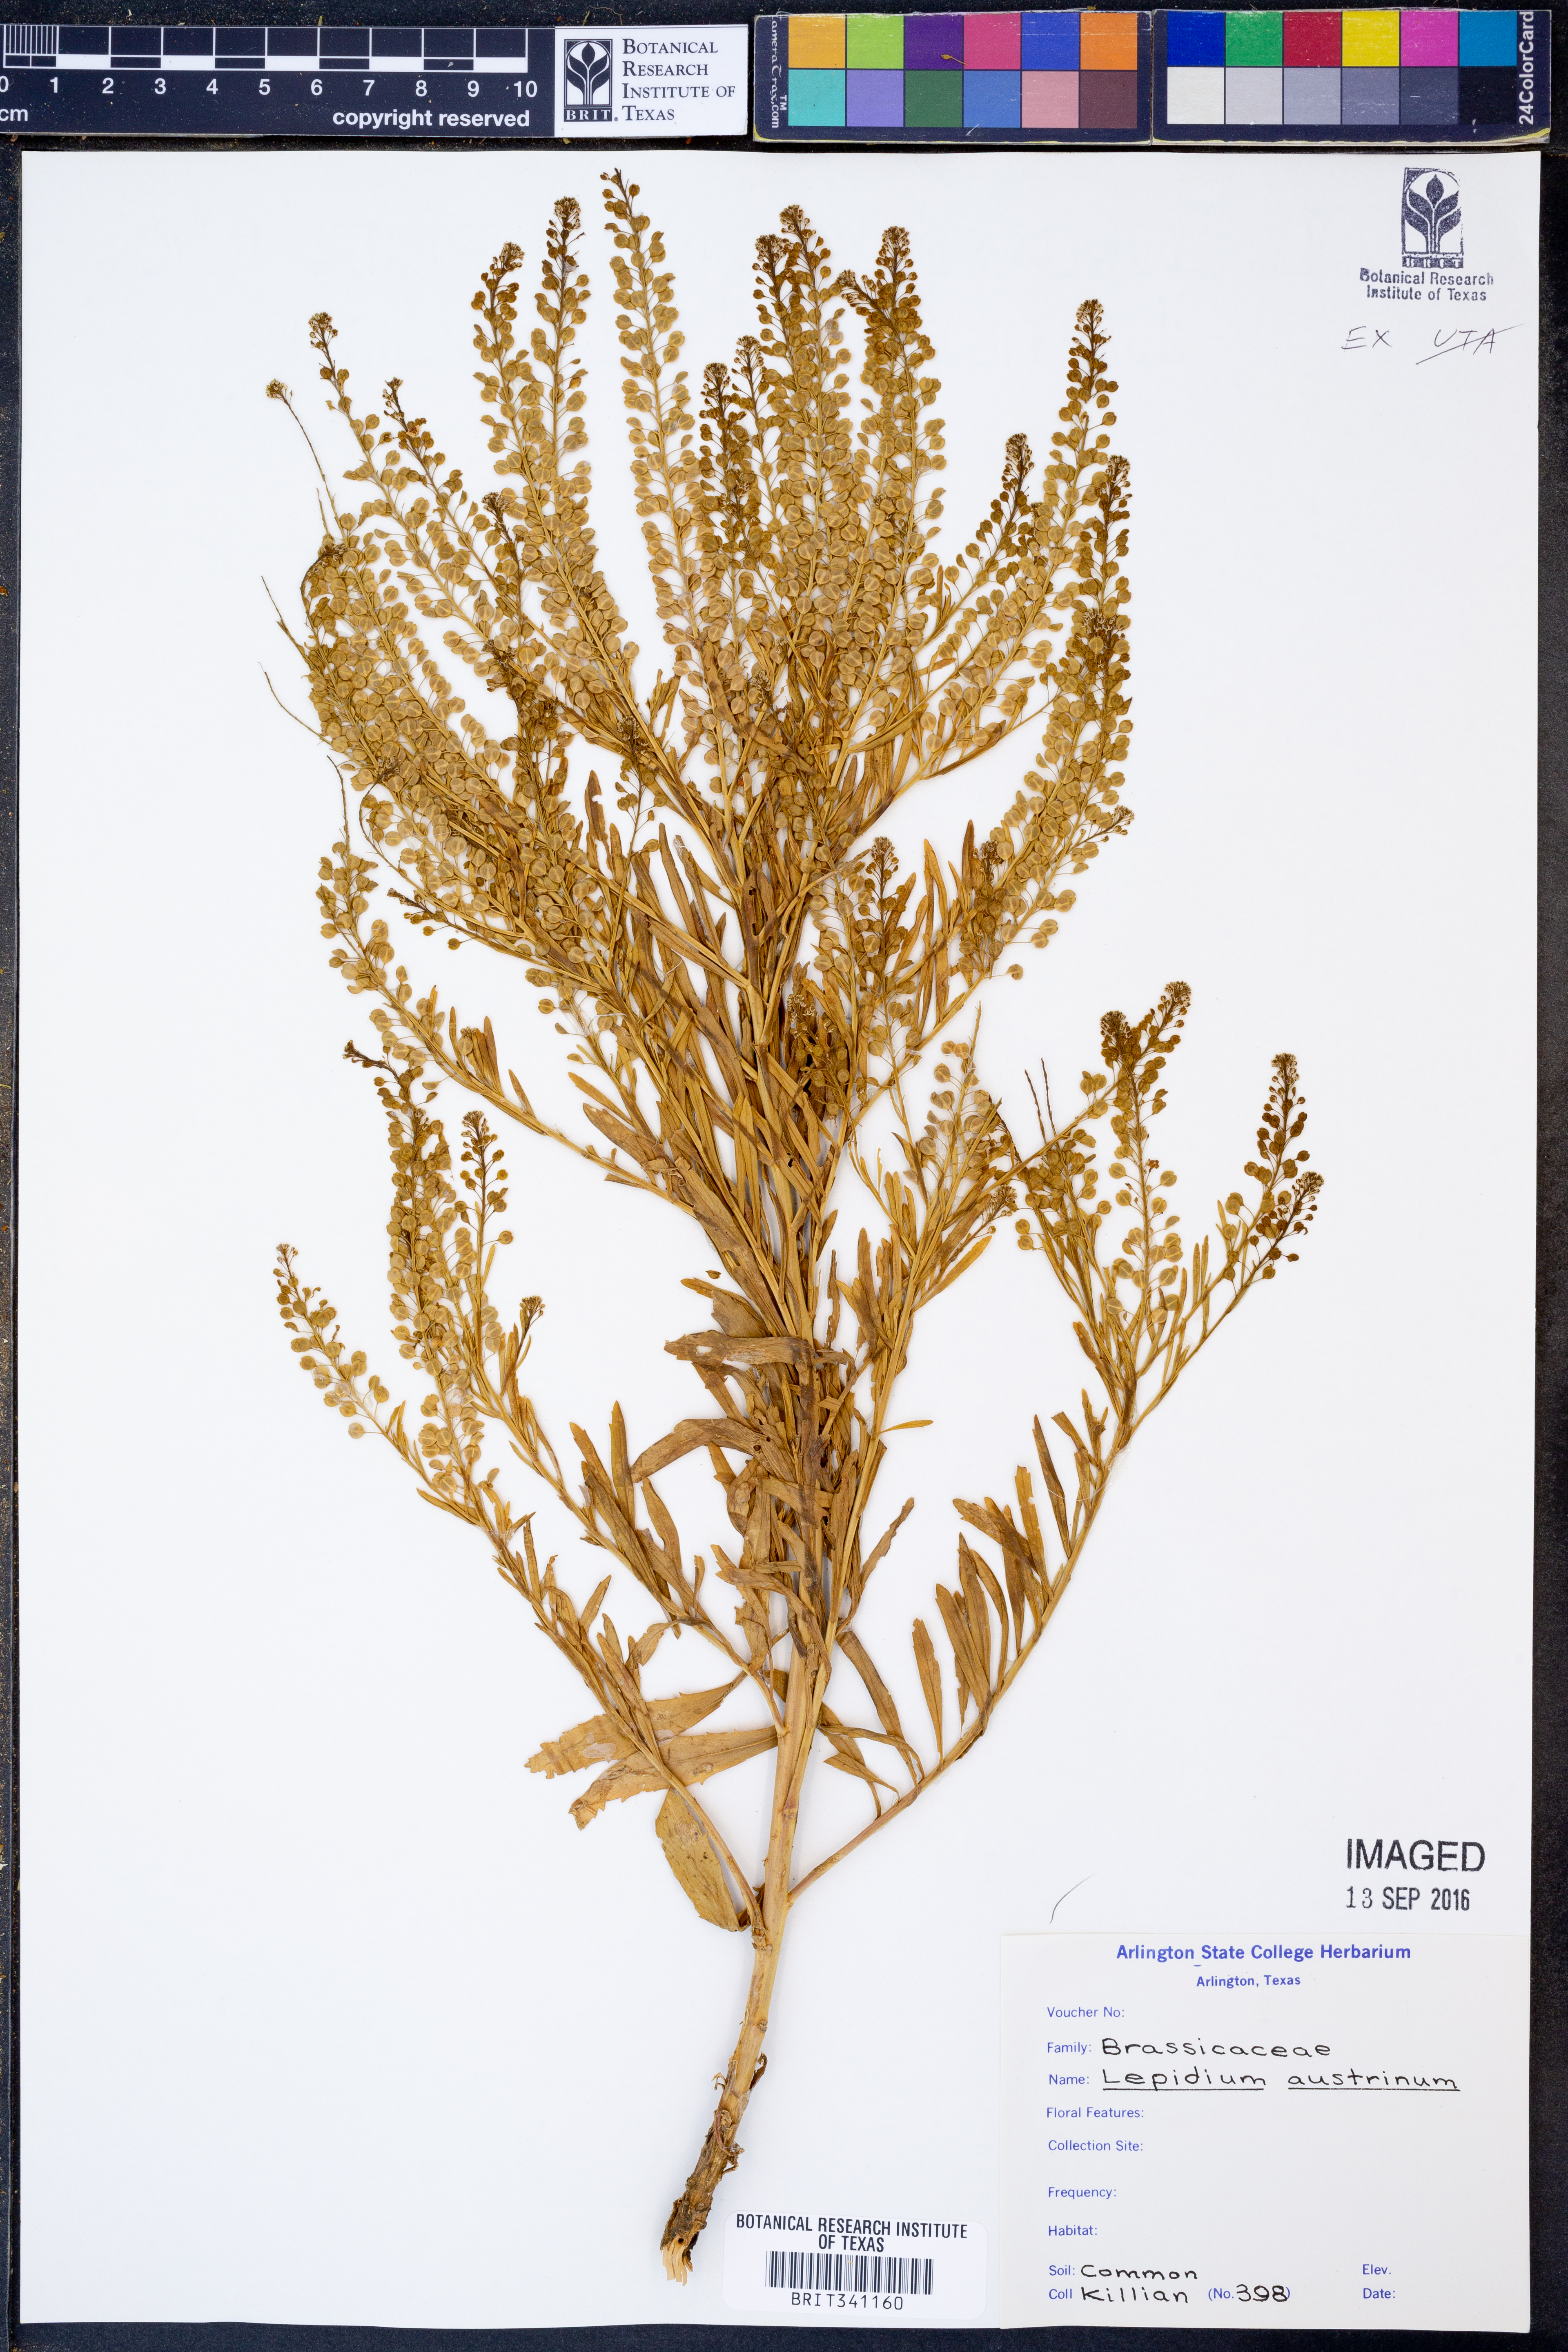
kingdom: Plantae
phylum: Tracheophyta
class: Magnoliopsida
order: Brassicales
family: Brassicaceae
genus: Lepidium
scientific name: Lepidium austrinum
